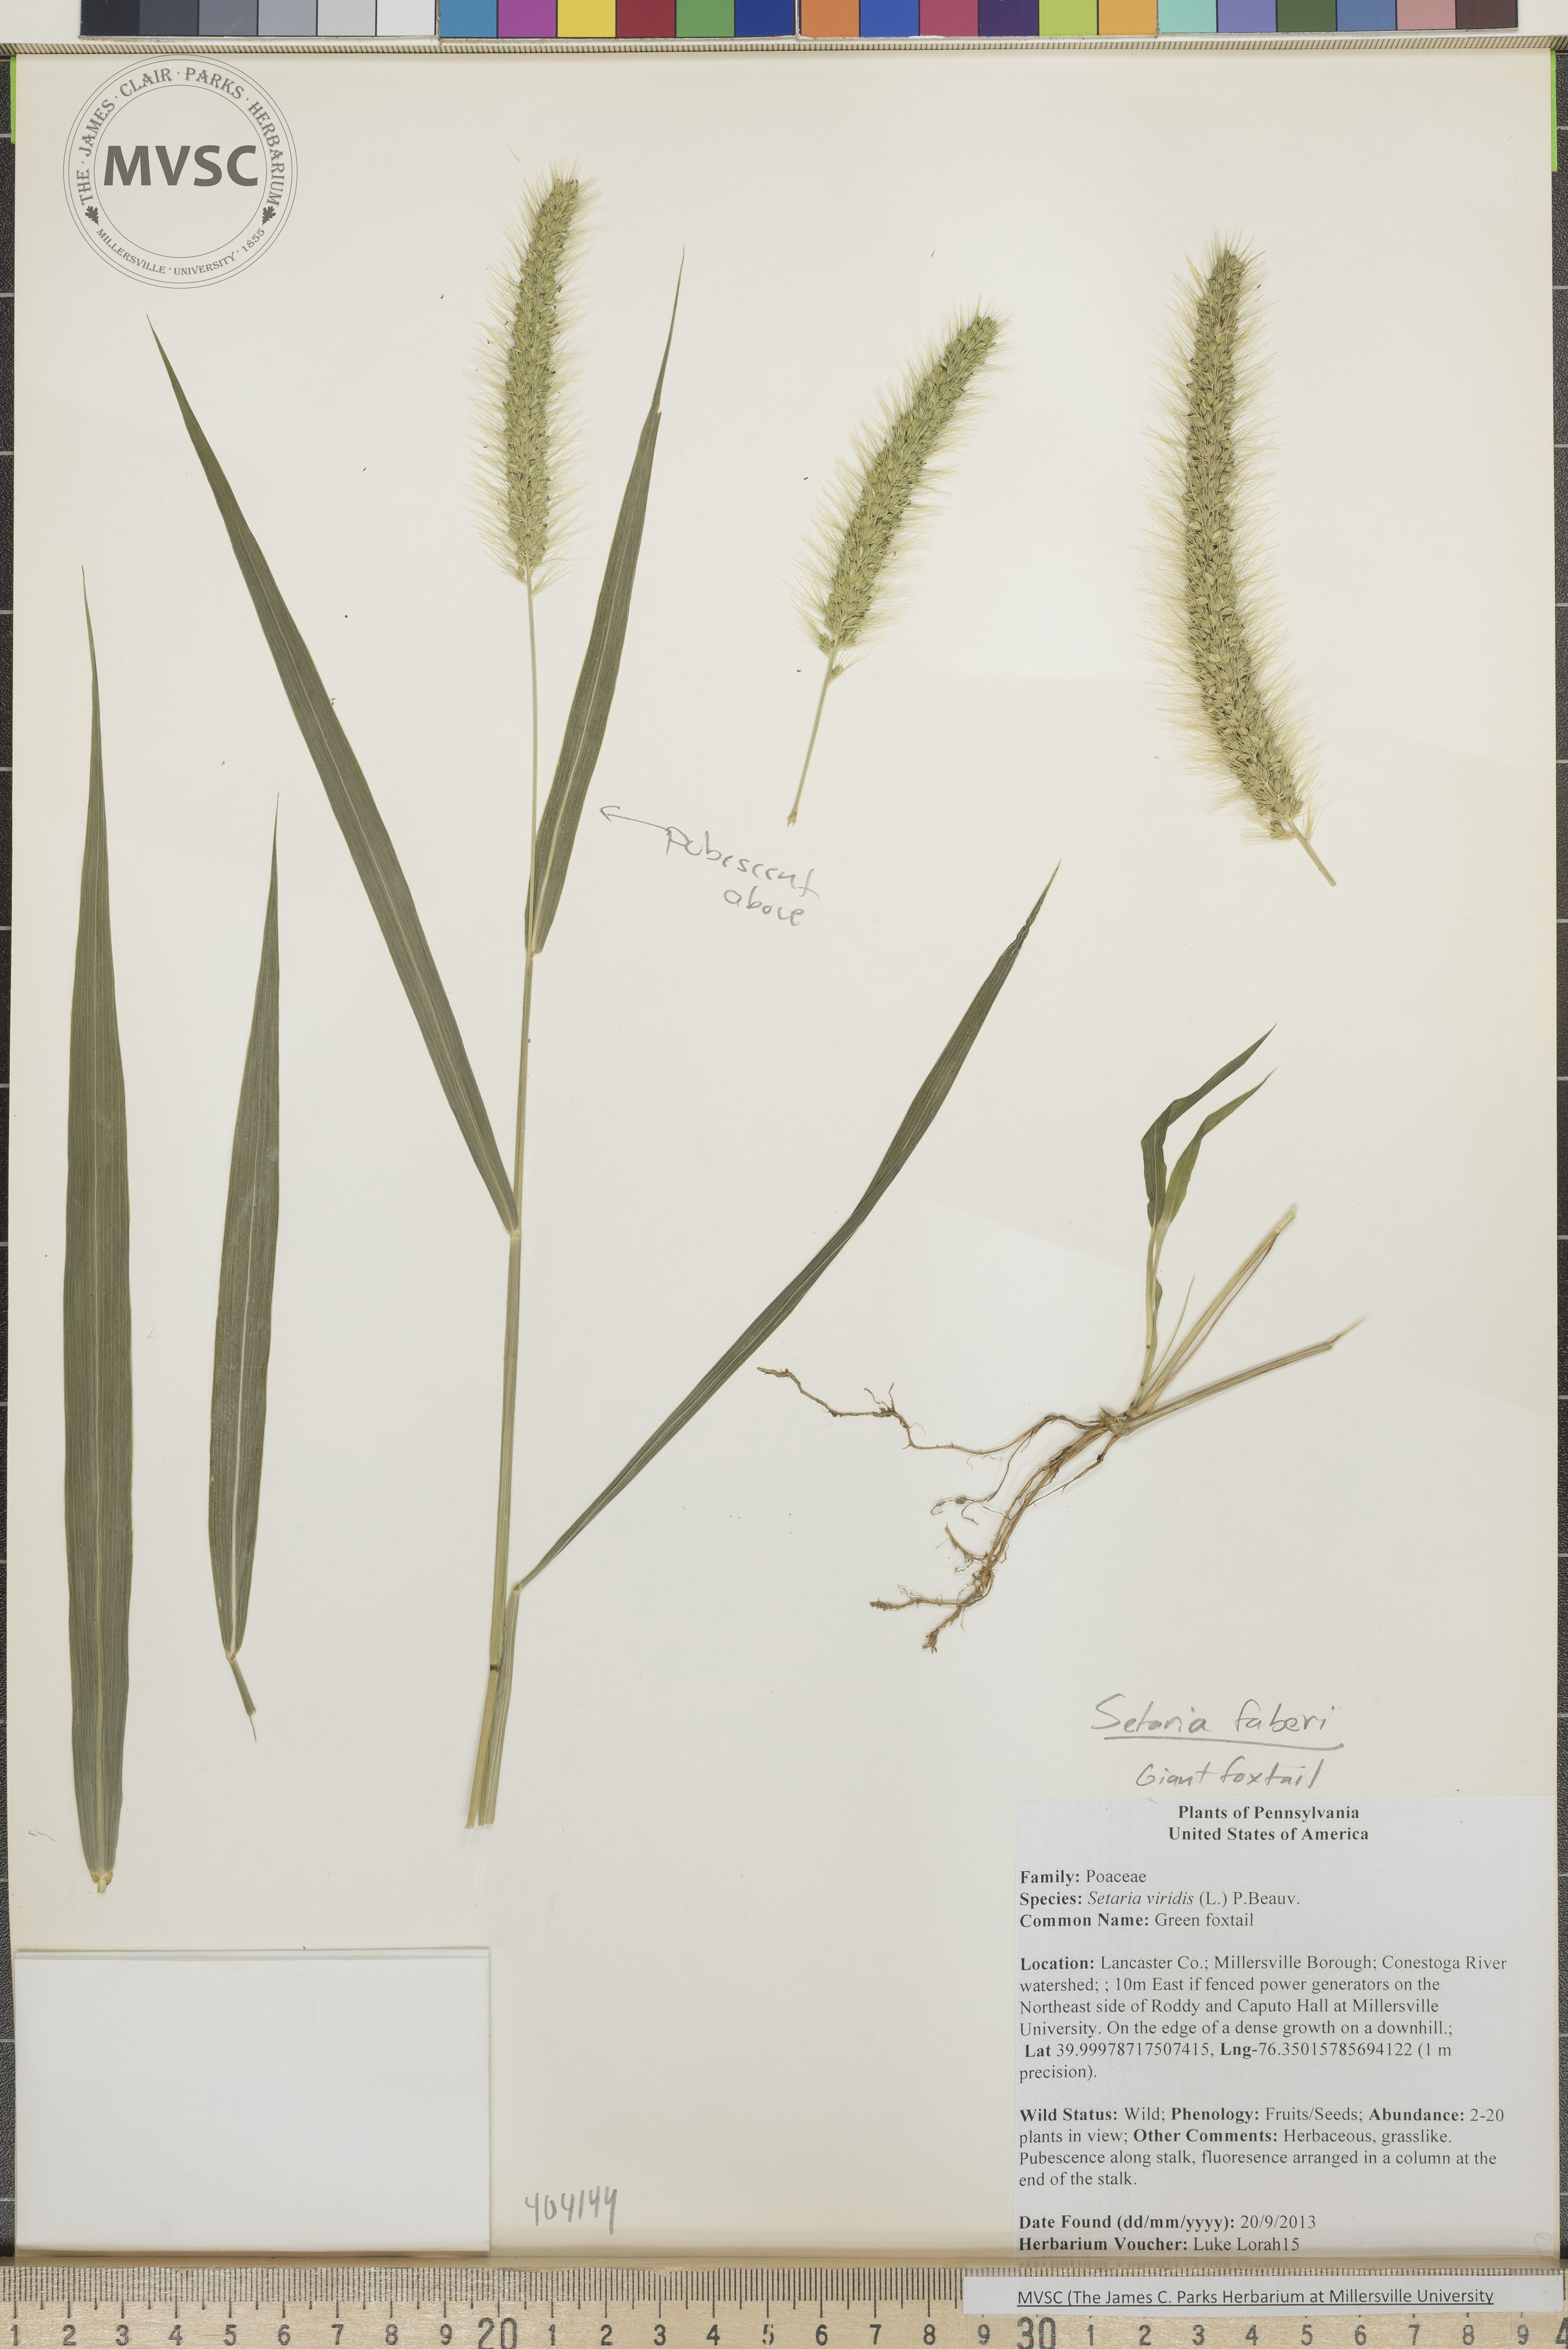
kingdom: Plantae
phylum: Tracheophyta
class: Liliopsida
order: Poales
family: Poaceae
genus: Setaria
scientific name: Setaria faberi
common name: Foxtail
